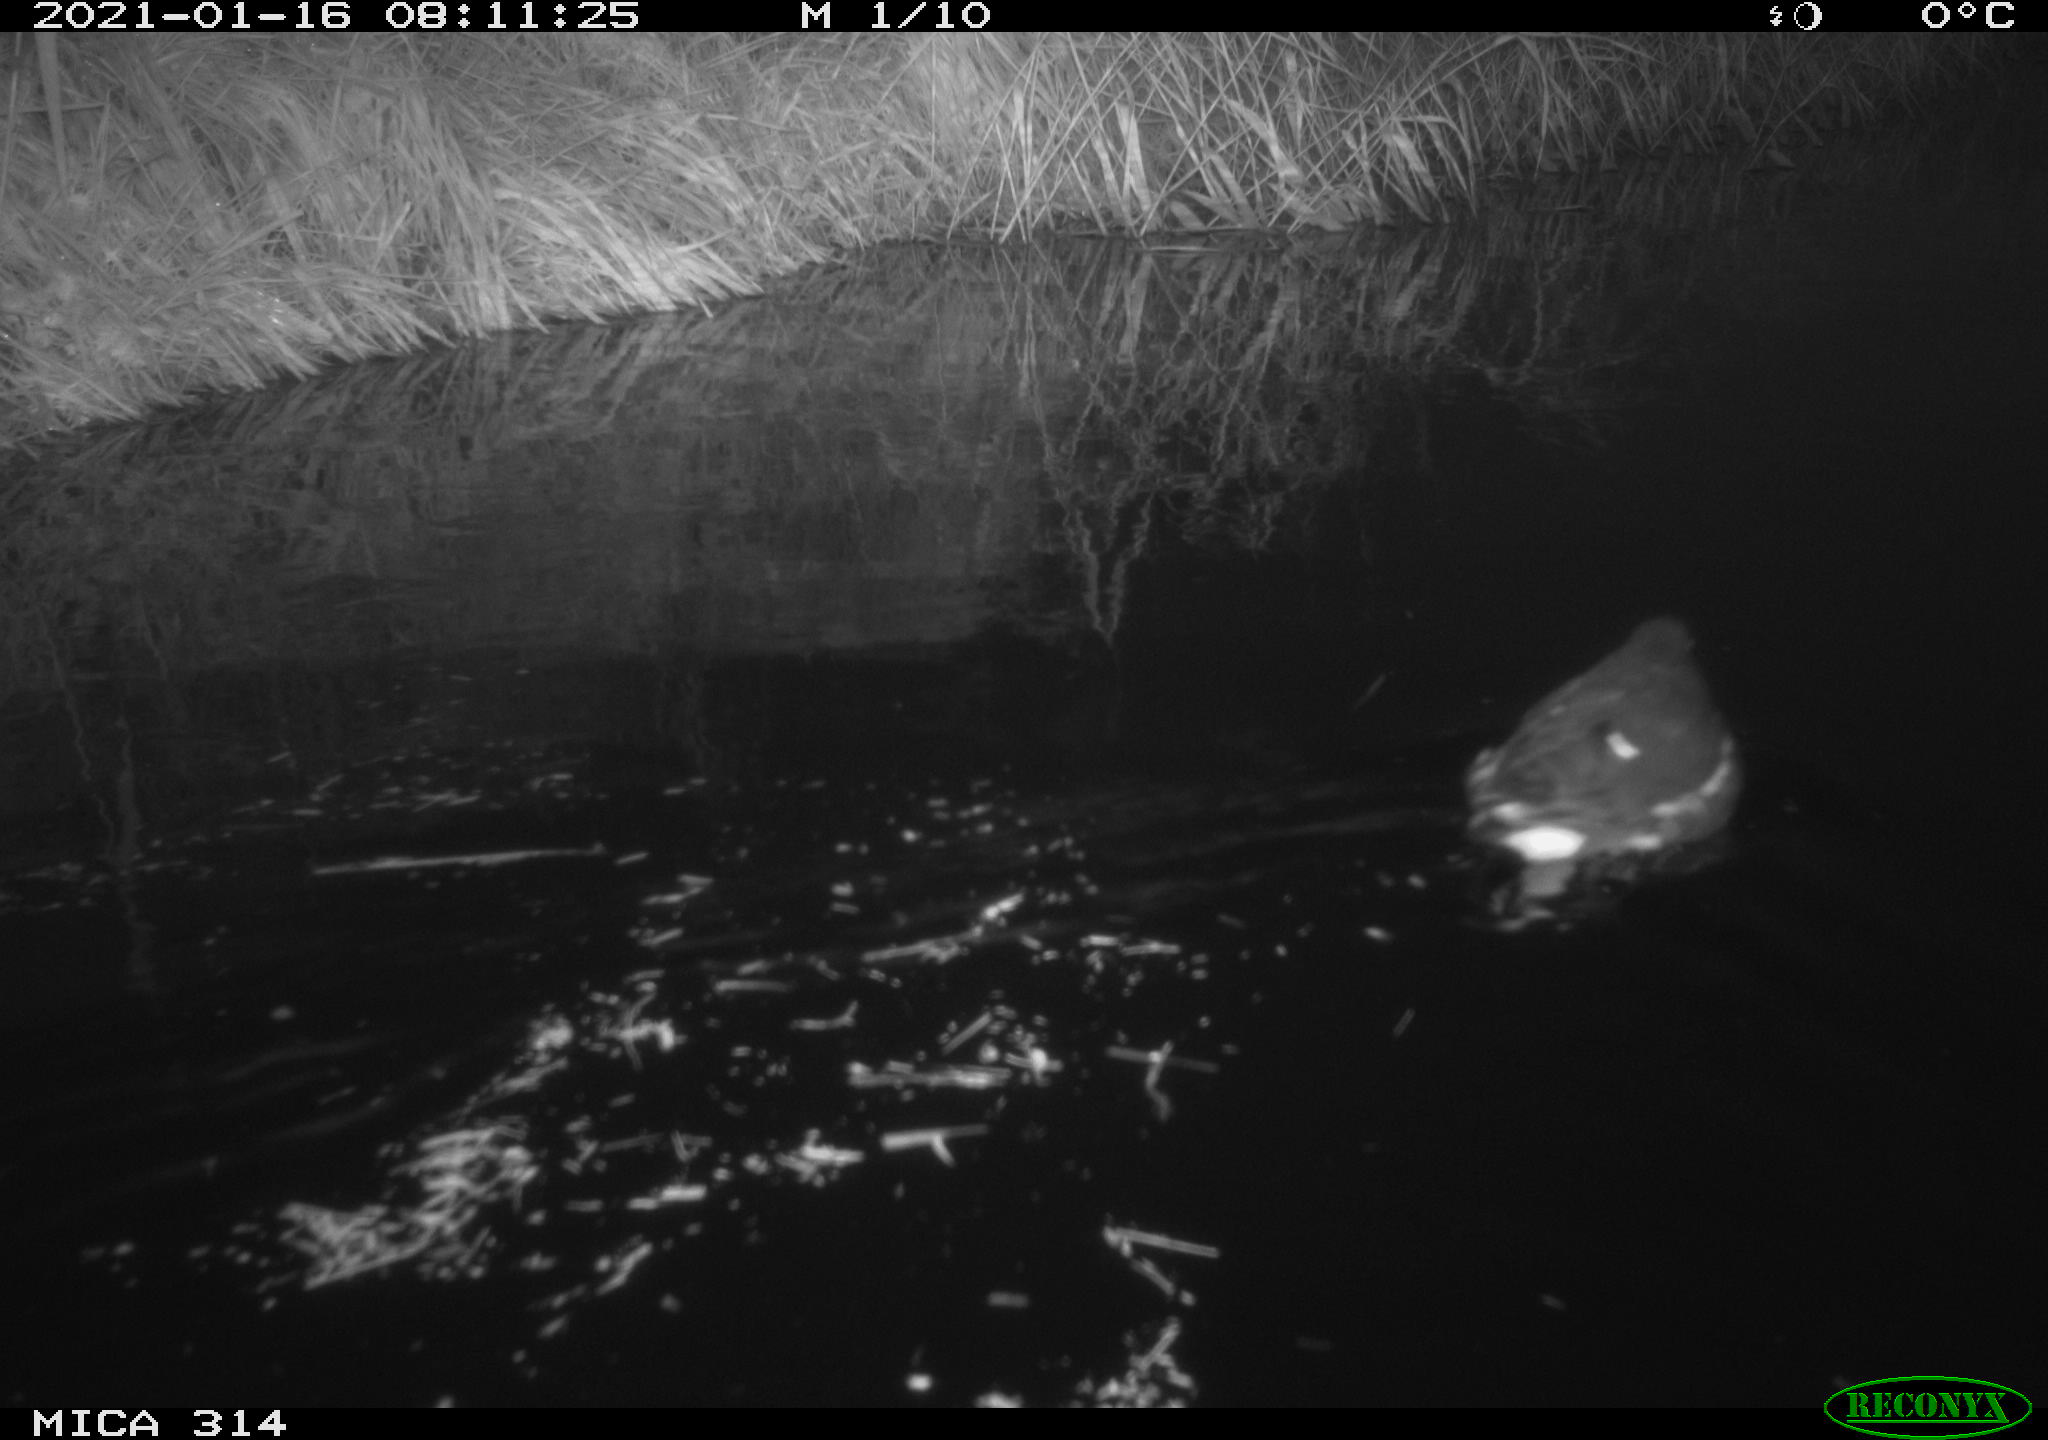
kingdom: Animalia
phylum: Chordata
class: Aves
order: Gruiformes
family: Rallidae
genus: Gallinula
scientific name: Gallinula chloropus
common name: Common moorhen
